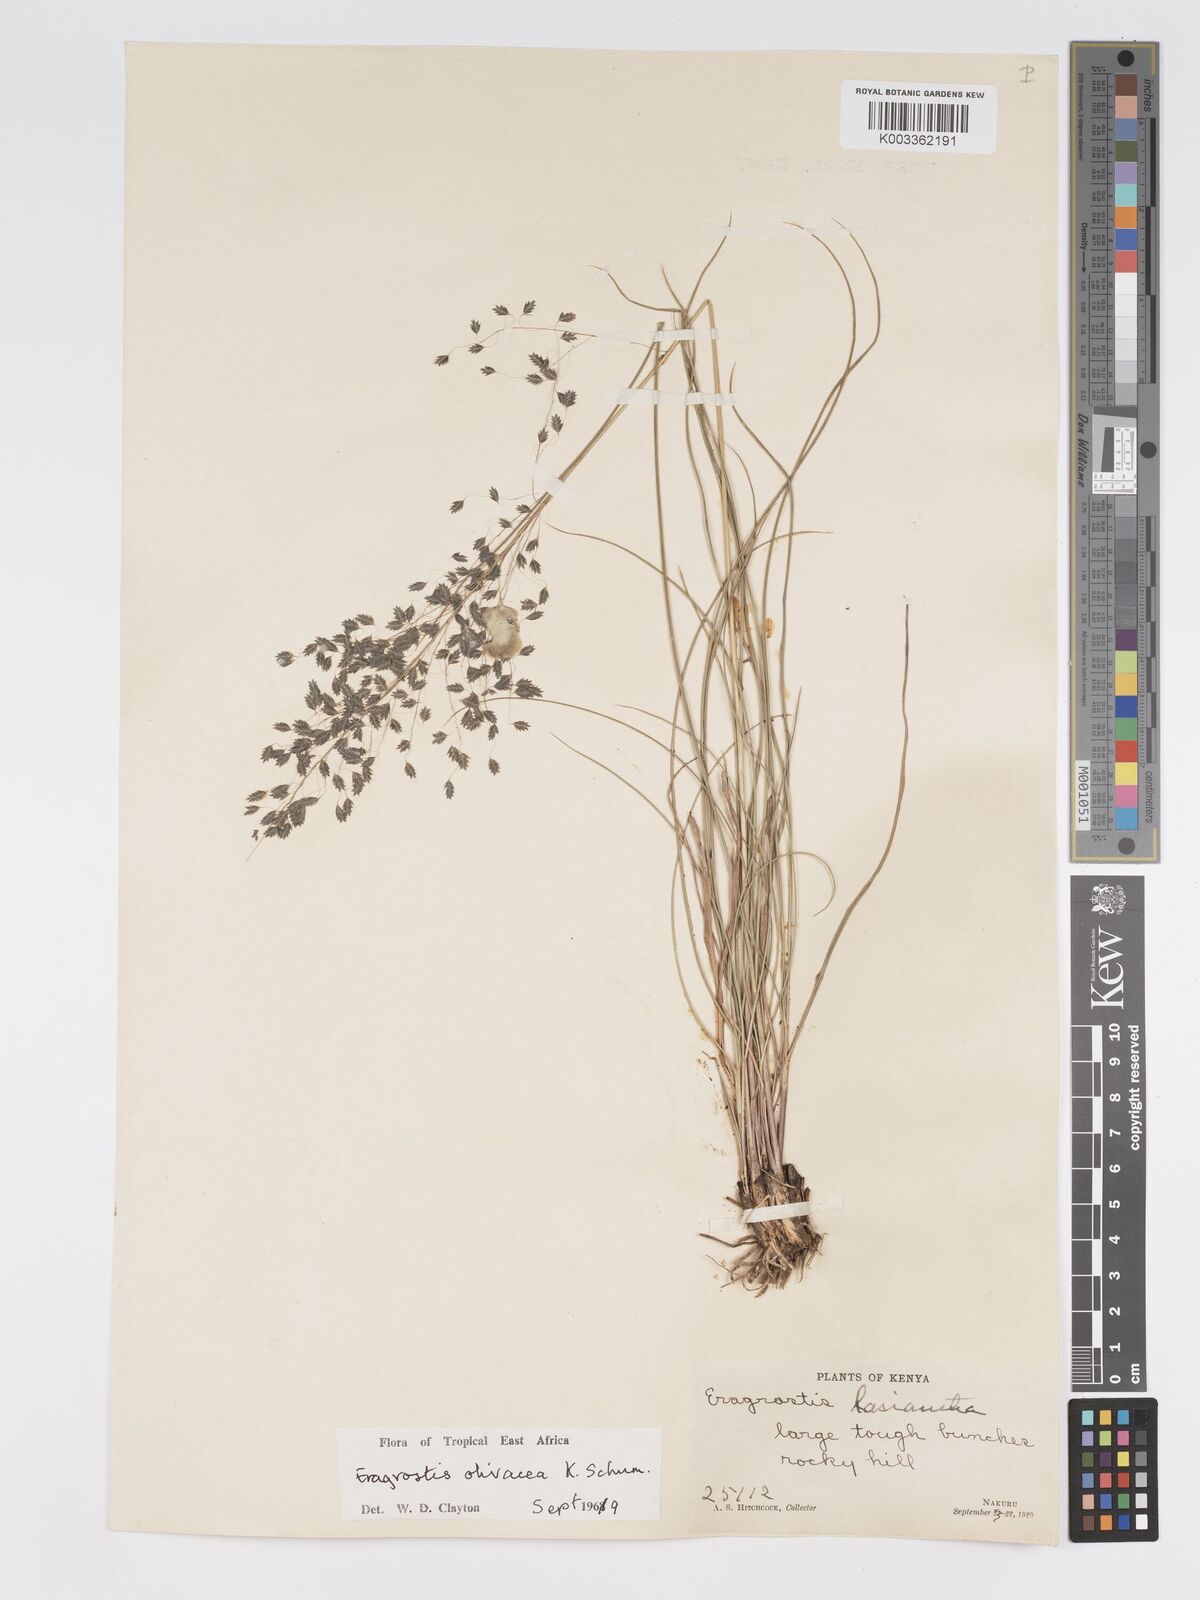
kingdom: Plantae
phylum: Tracheophyta
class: Liliopsida
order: Poales
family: Poaceae
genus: Eragrostis
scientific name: Eragrostis olivacea
